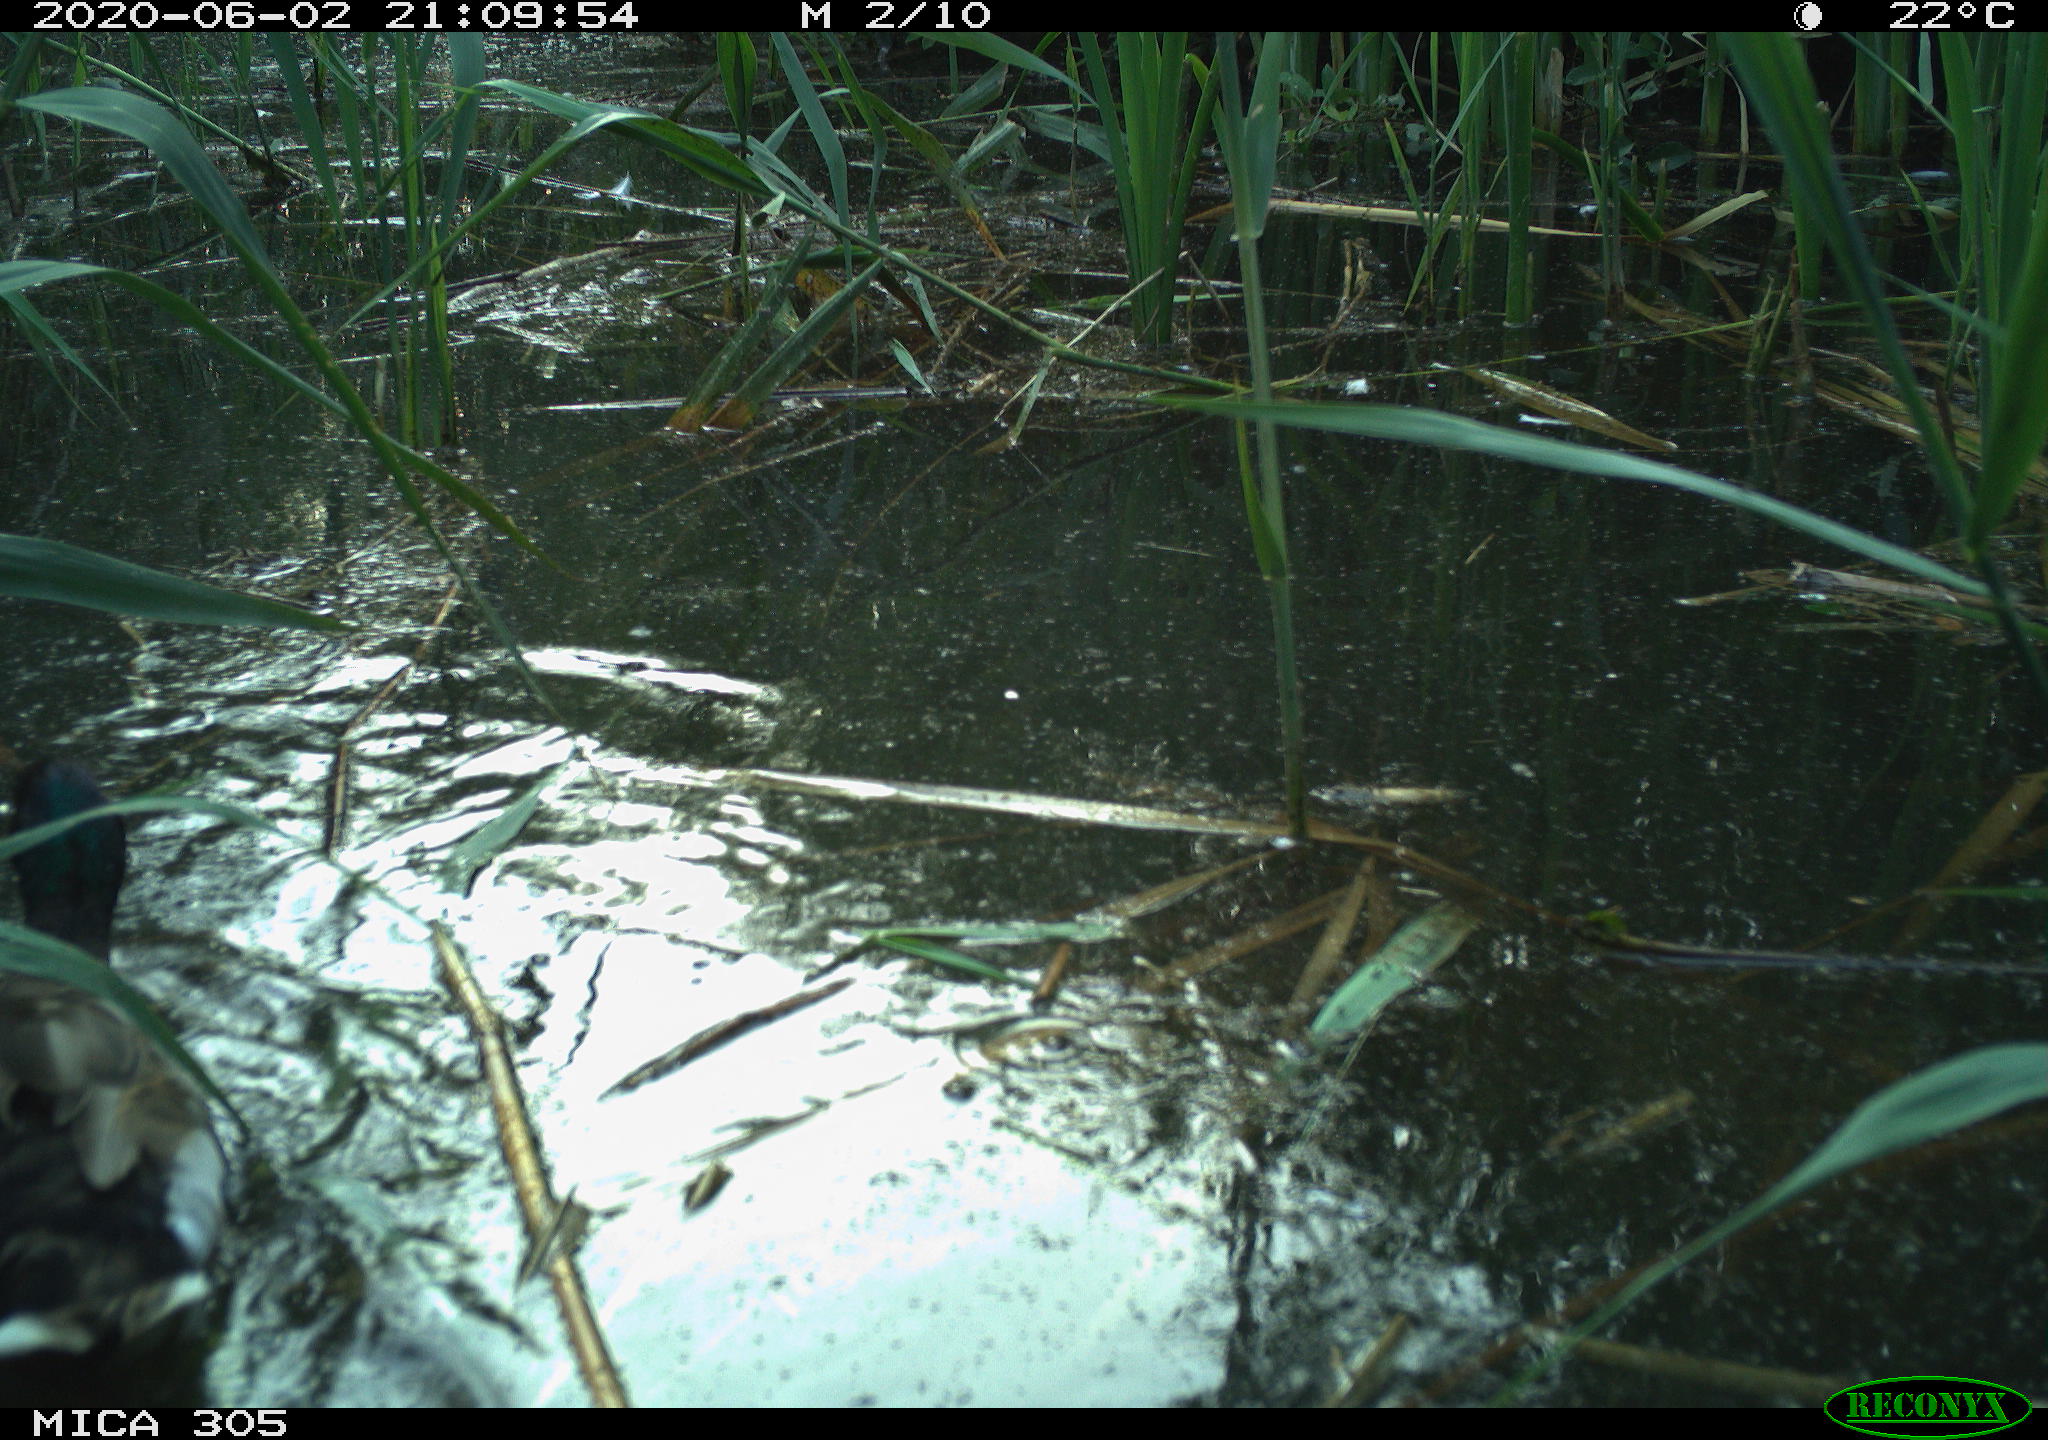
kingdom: Animalia
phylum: Chordata
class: Aves
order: Anseriformes
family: Anatidae
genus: Anas
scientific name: Anas platyrhynchos
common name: Mallard
